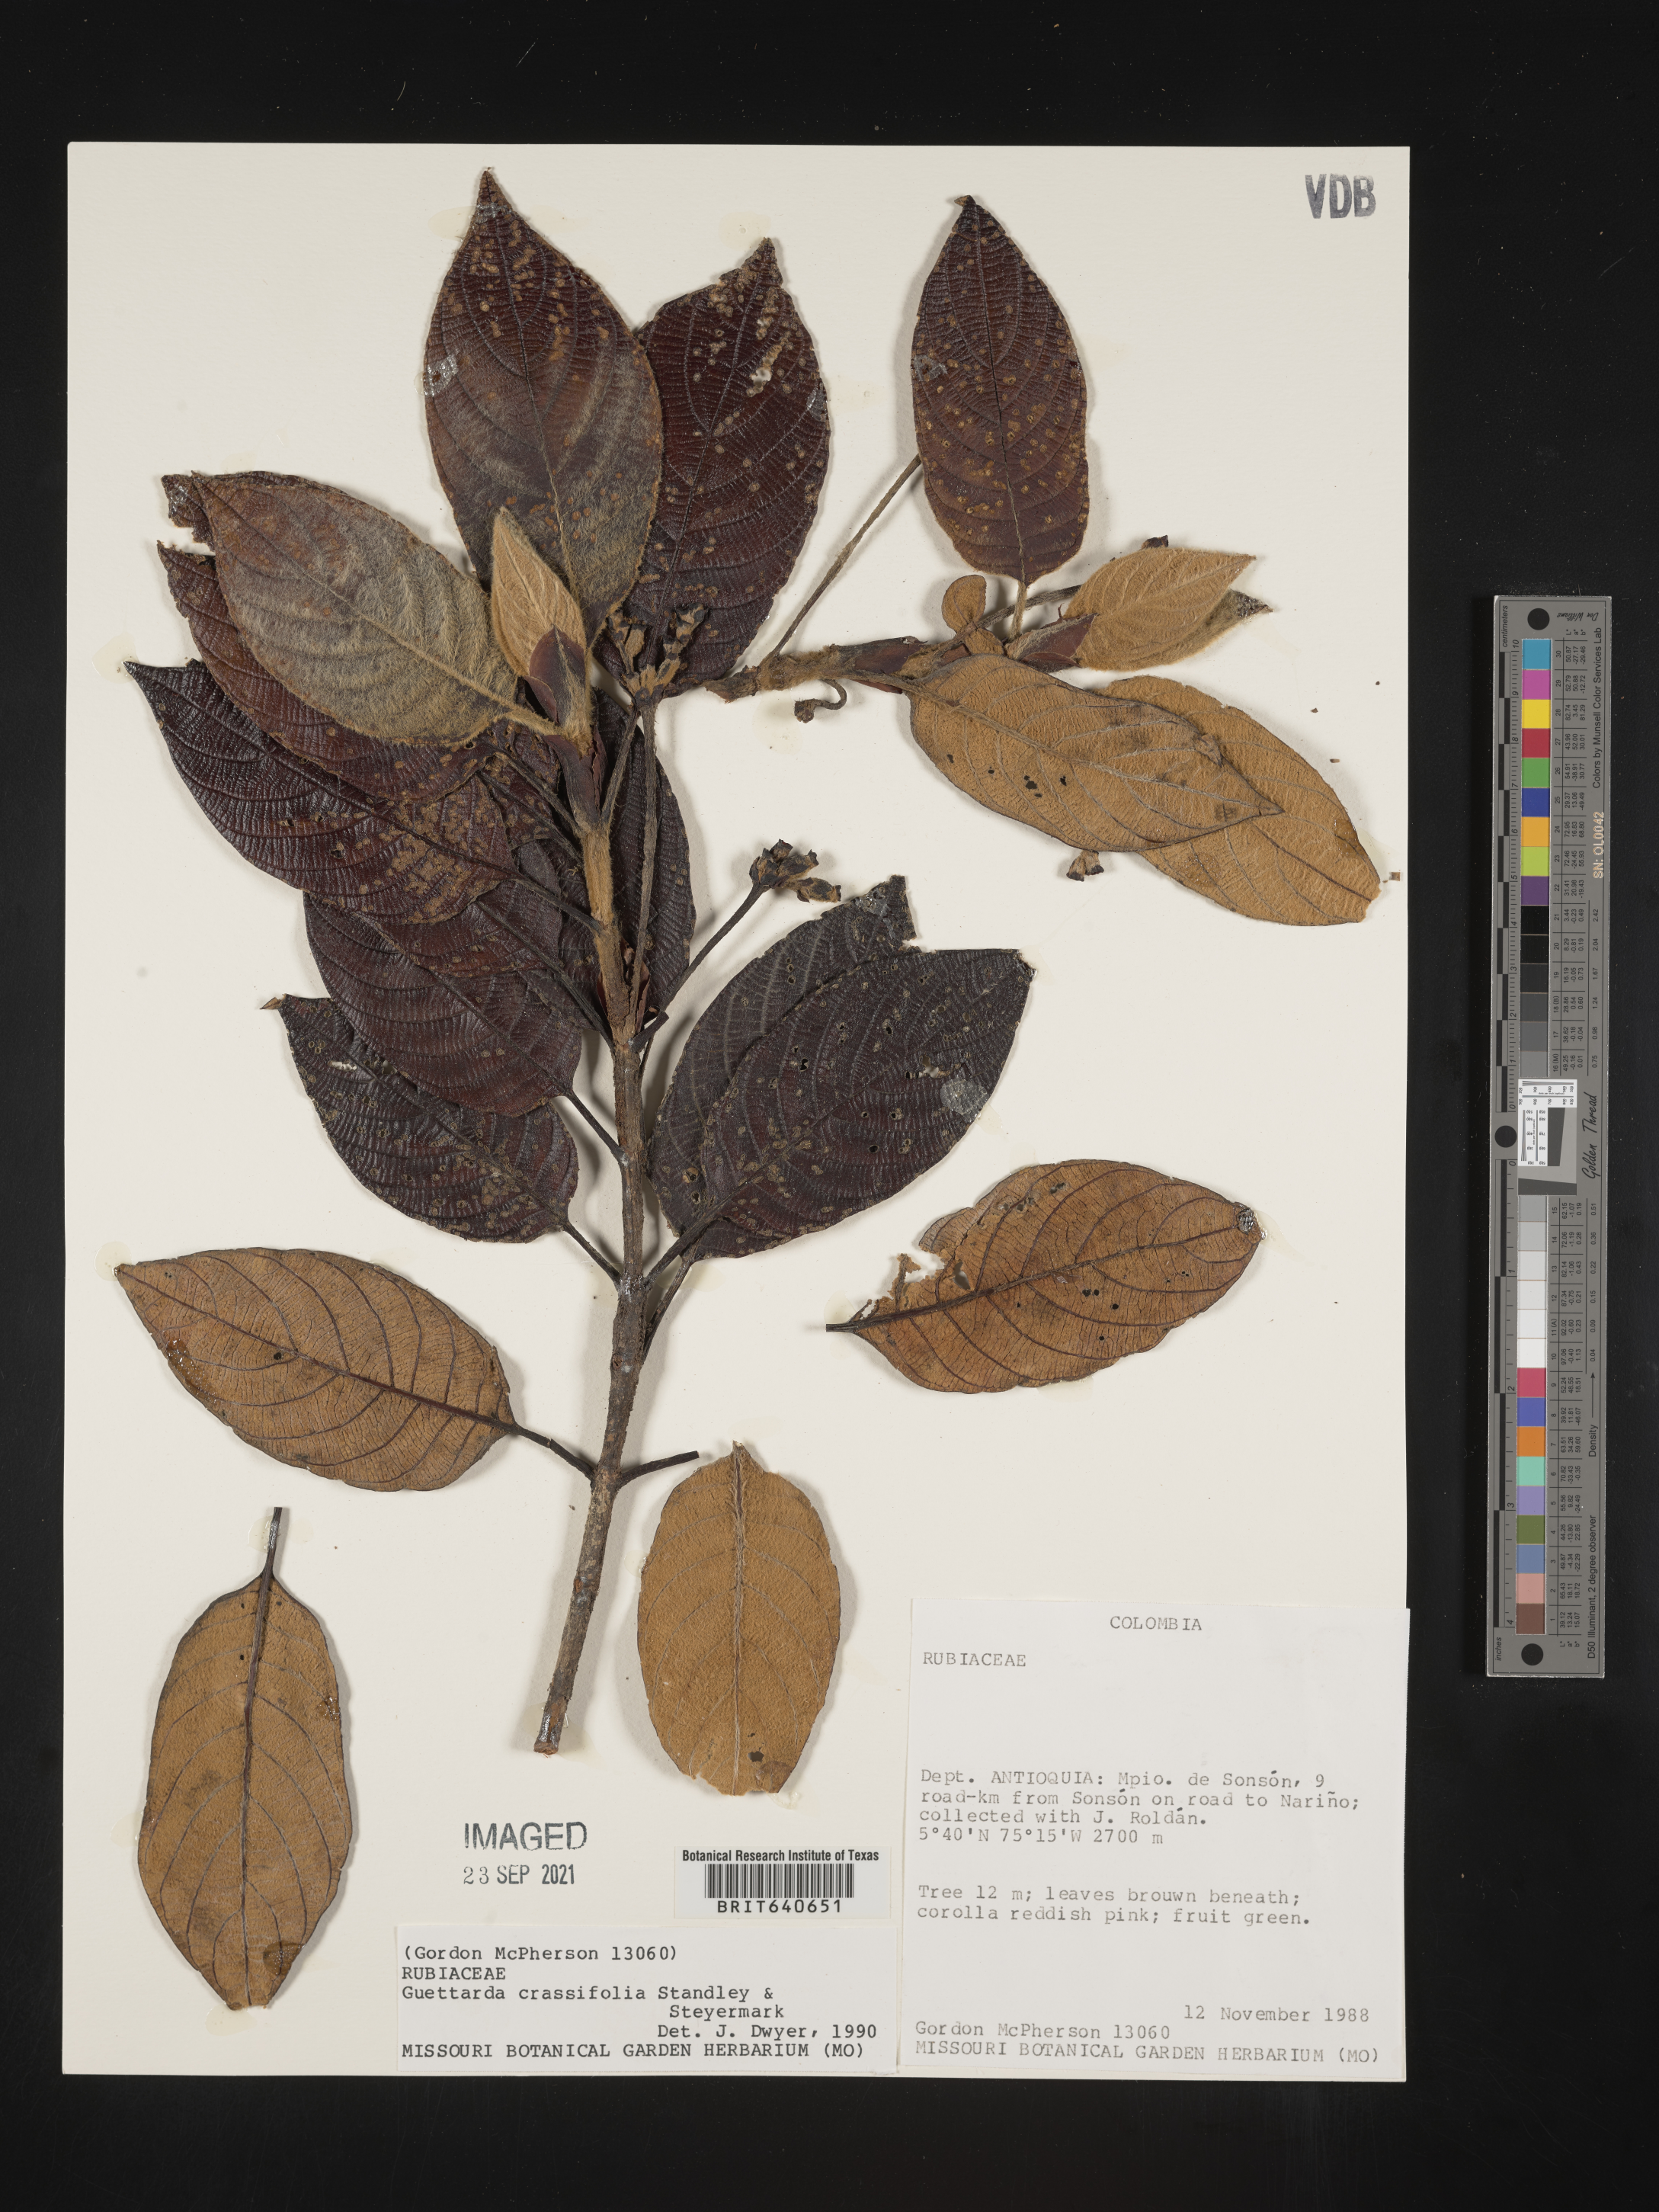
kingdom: Plantae
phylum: Tracheophyta
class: Magnoliopsida
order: Gentianales
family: Rubiaceae
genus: Guettarda
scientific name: Guettarda
